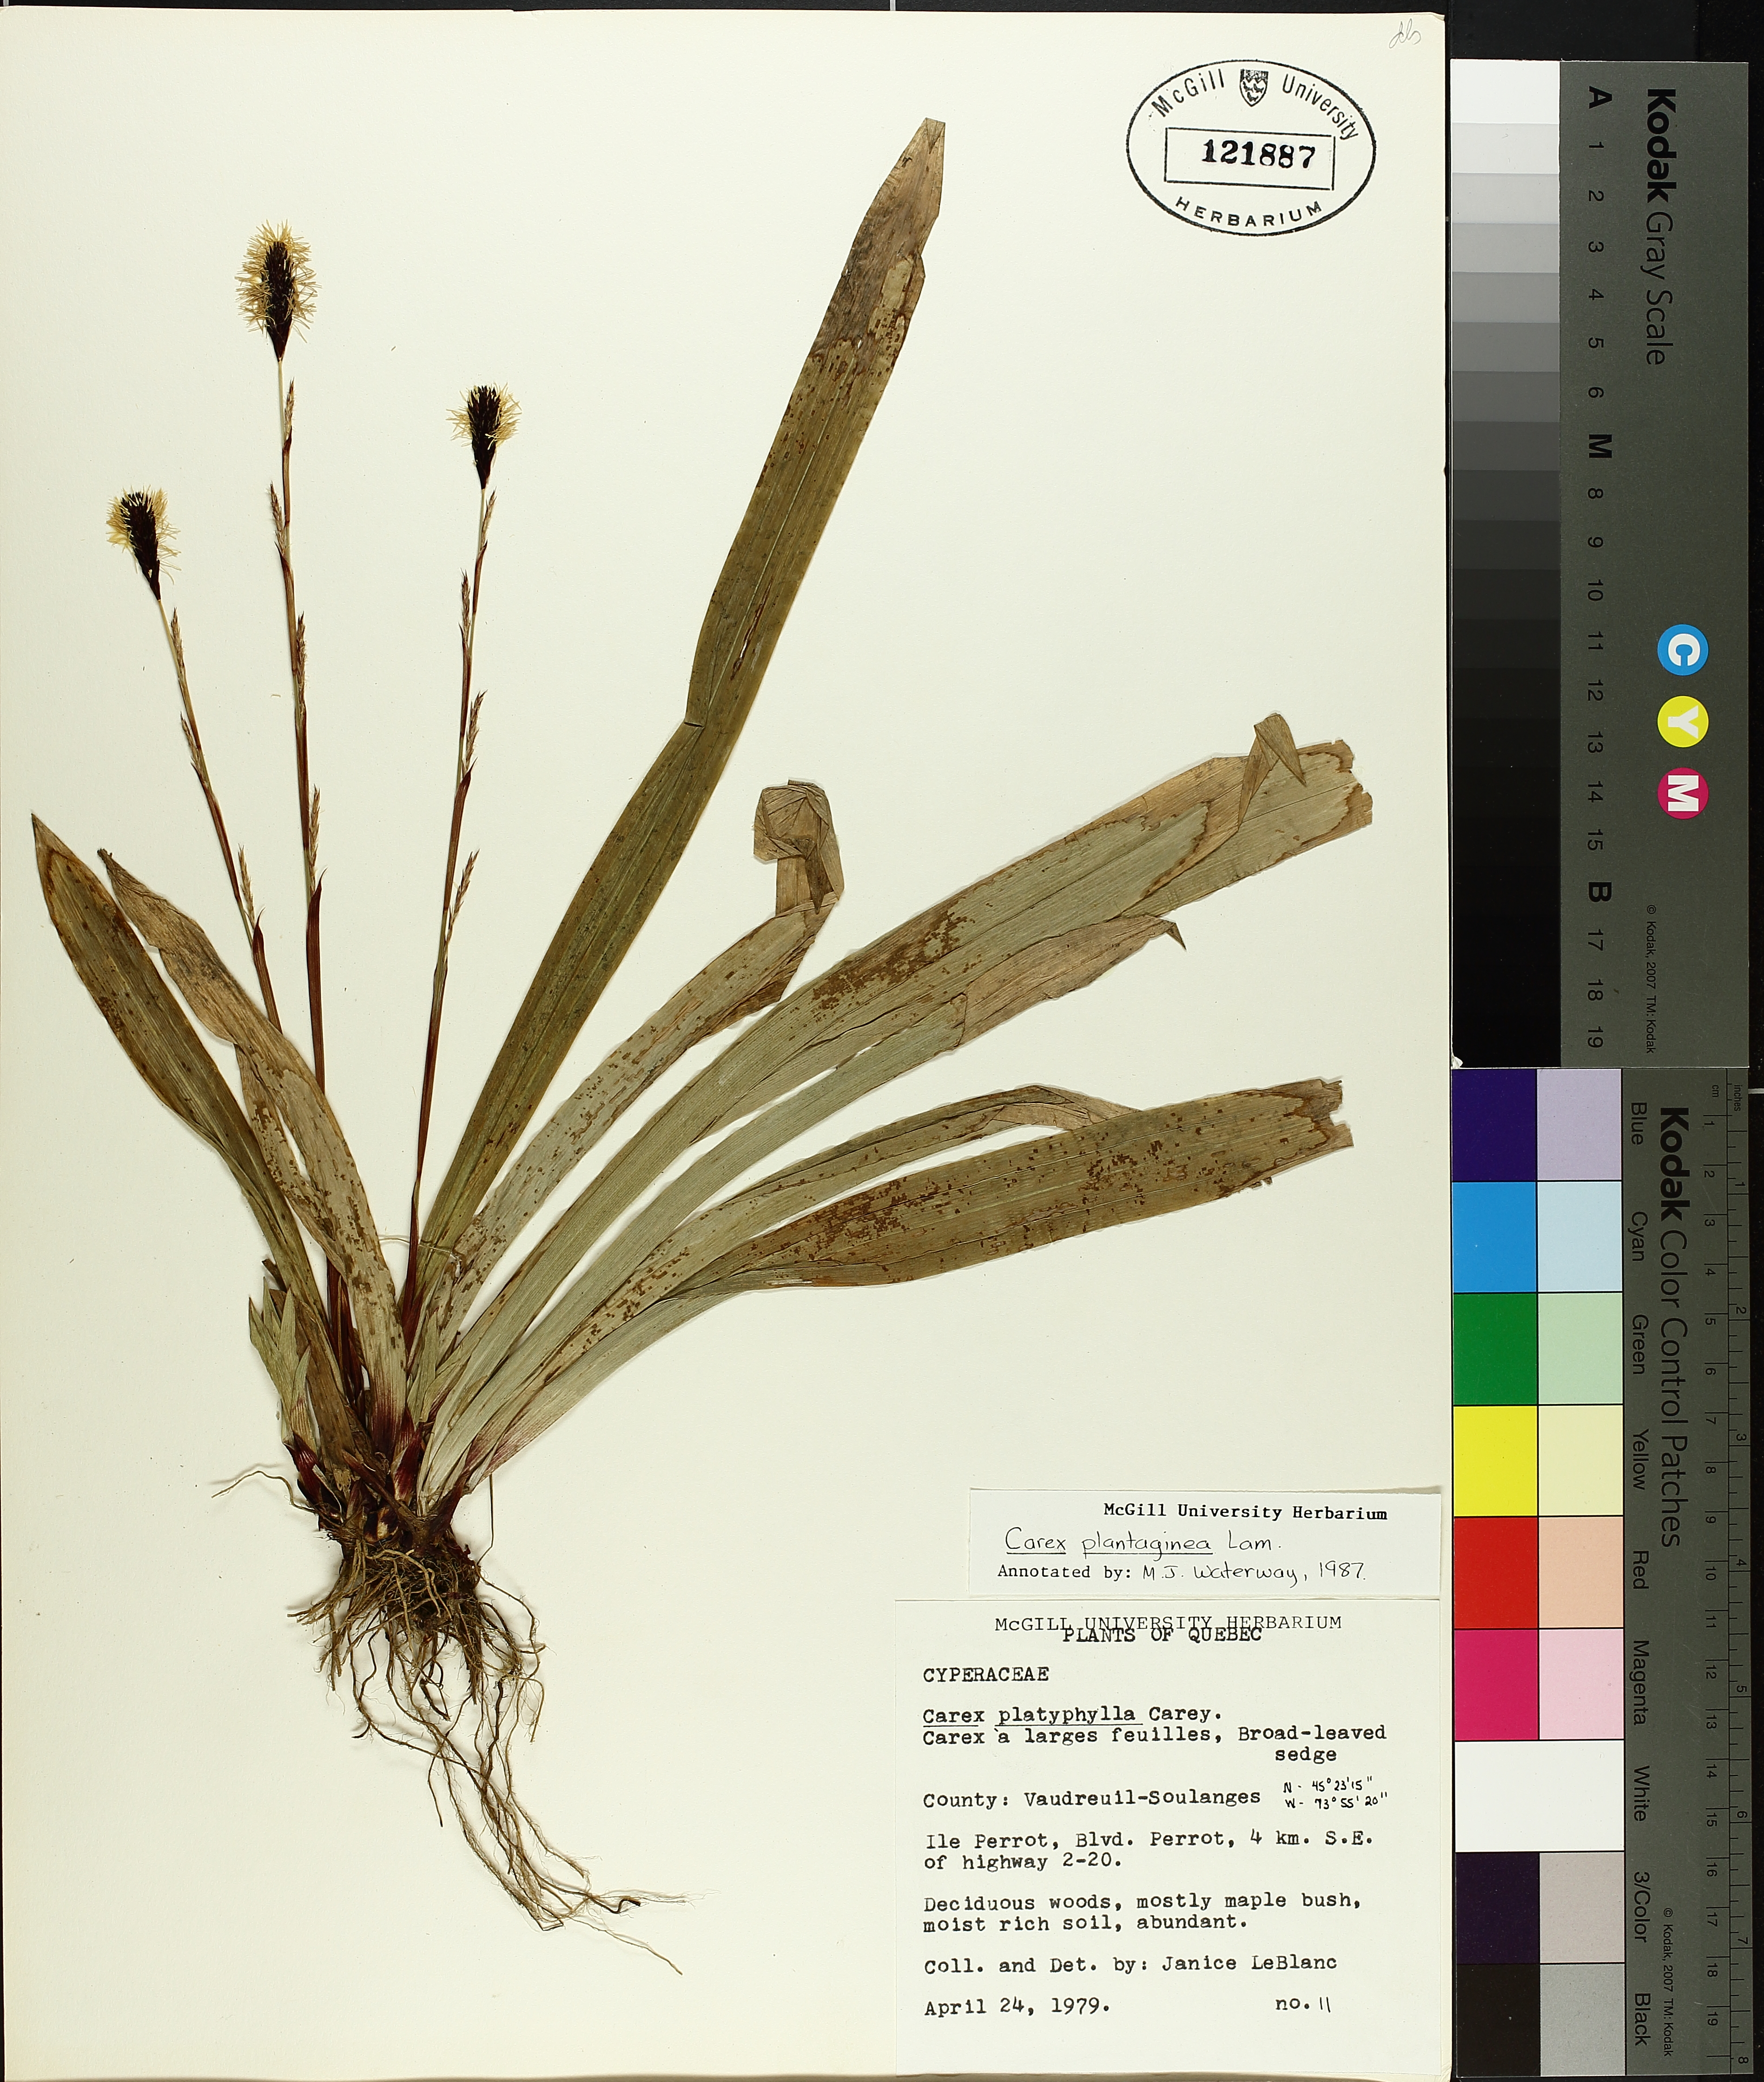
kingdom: Plantae
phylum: Tracheophyta
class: Liliopsida
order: Poales
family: Cyperaceae
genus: Carex
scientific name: Carex plantaginea
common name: Plantain-leaved sedge
